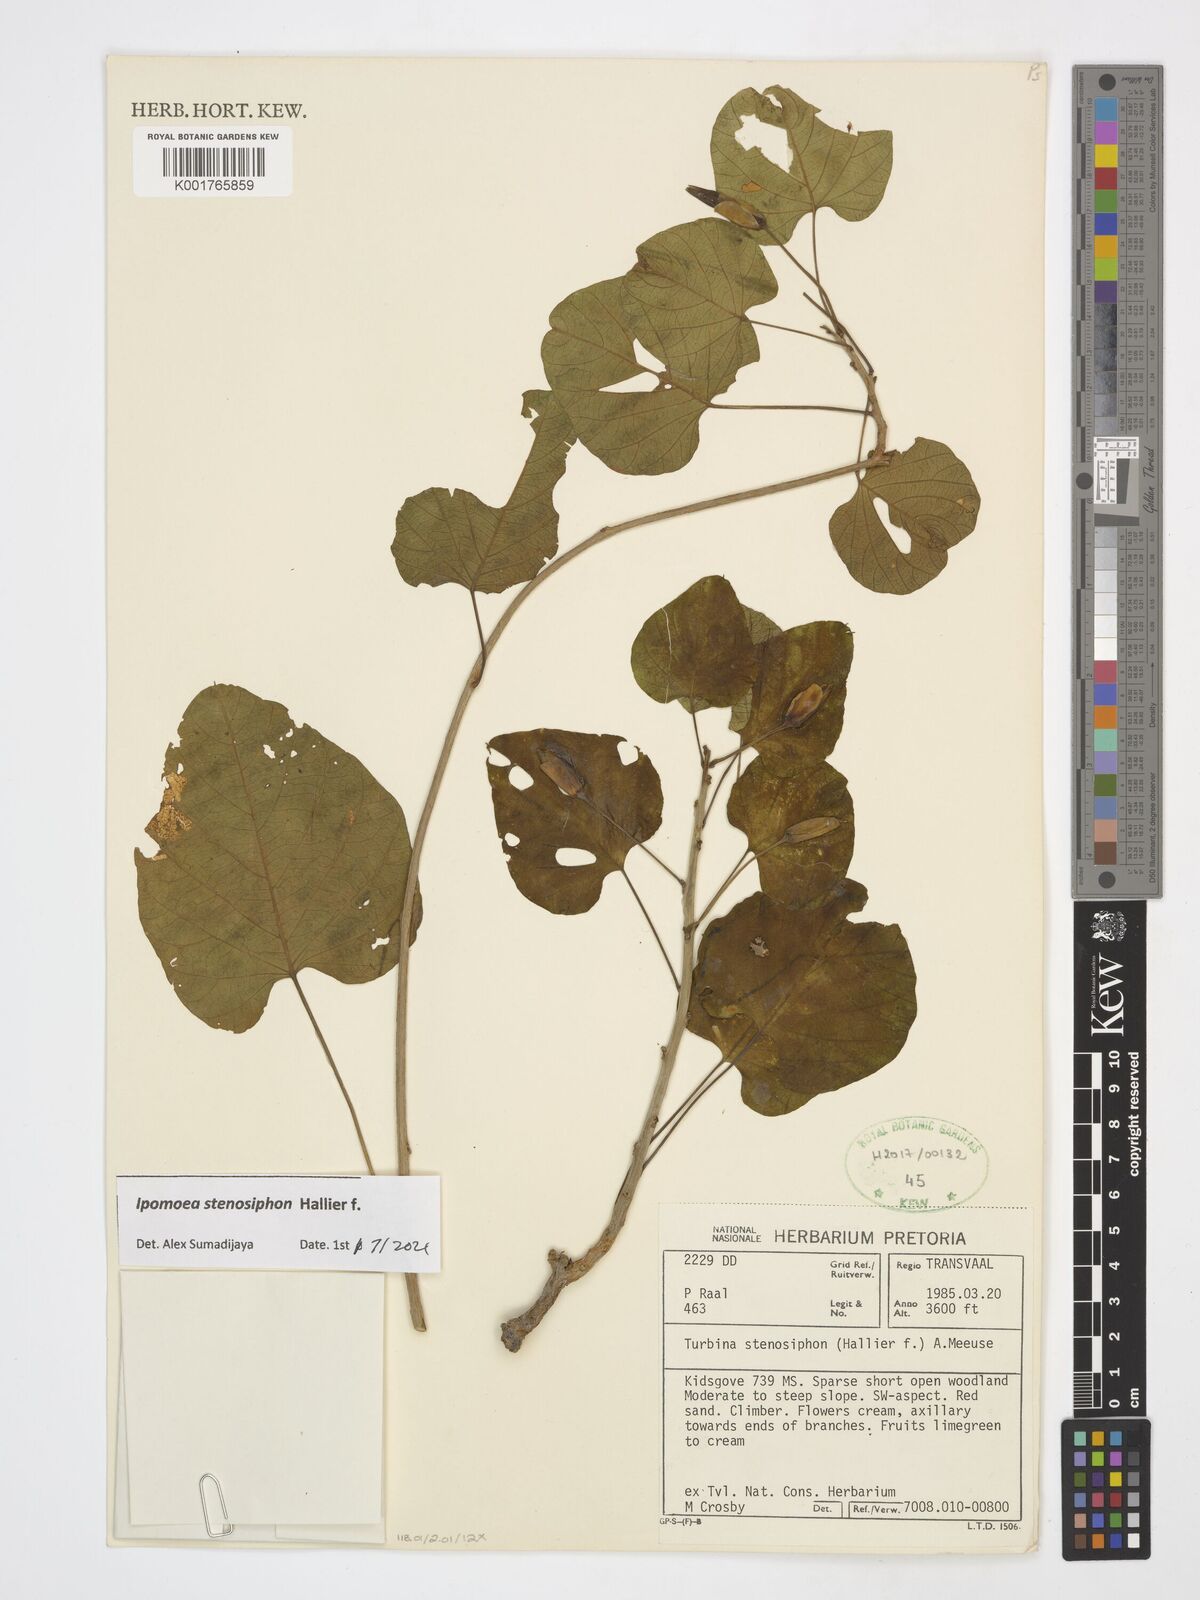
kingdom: Plantae
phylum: Tracheophyta
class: Magnoliopsida
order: Solanales
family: Convolvulaceae
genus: Ipomoea
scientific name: Ipomoea stenosiphon
